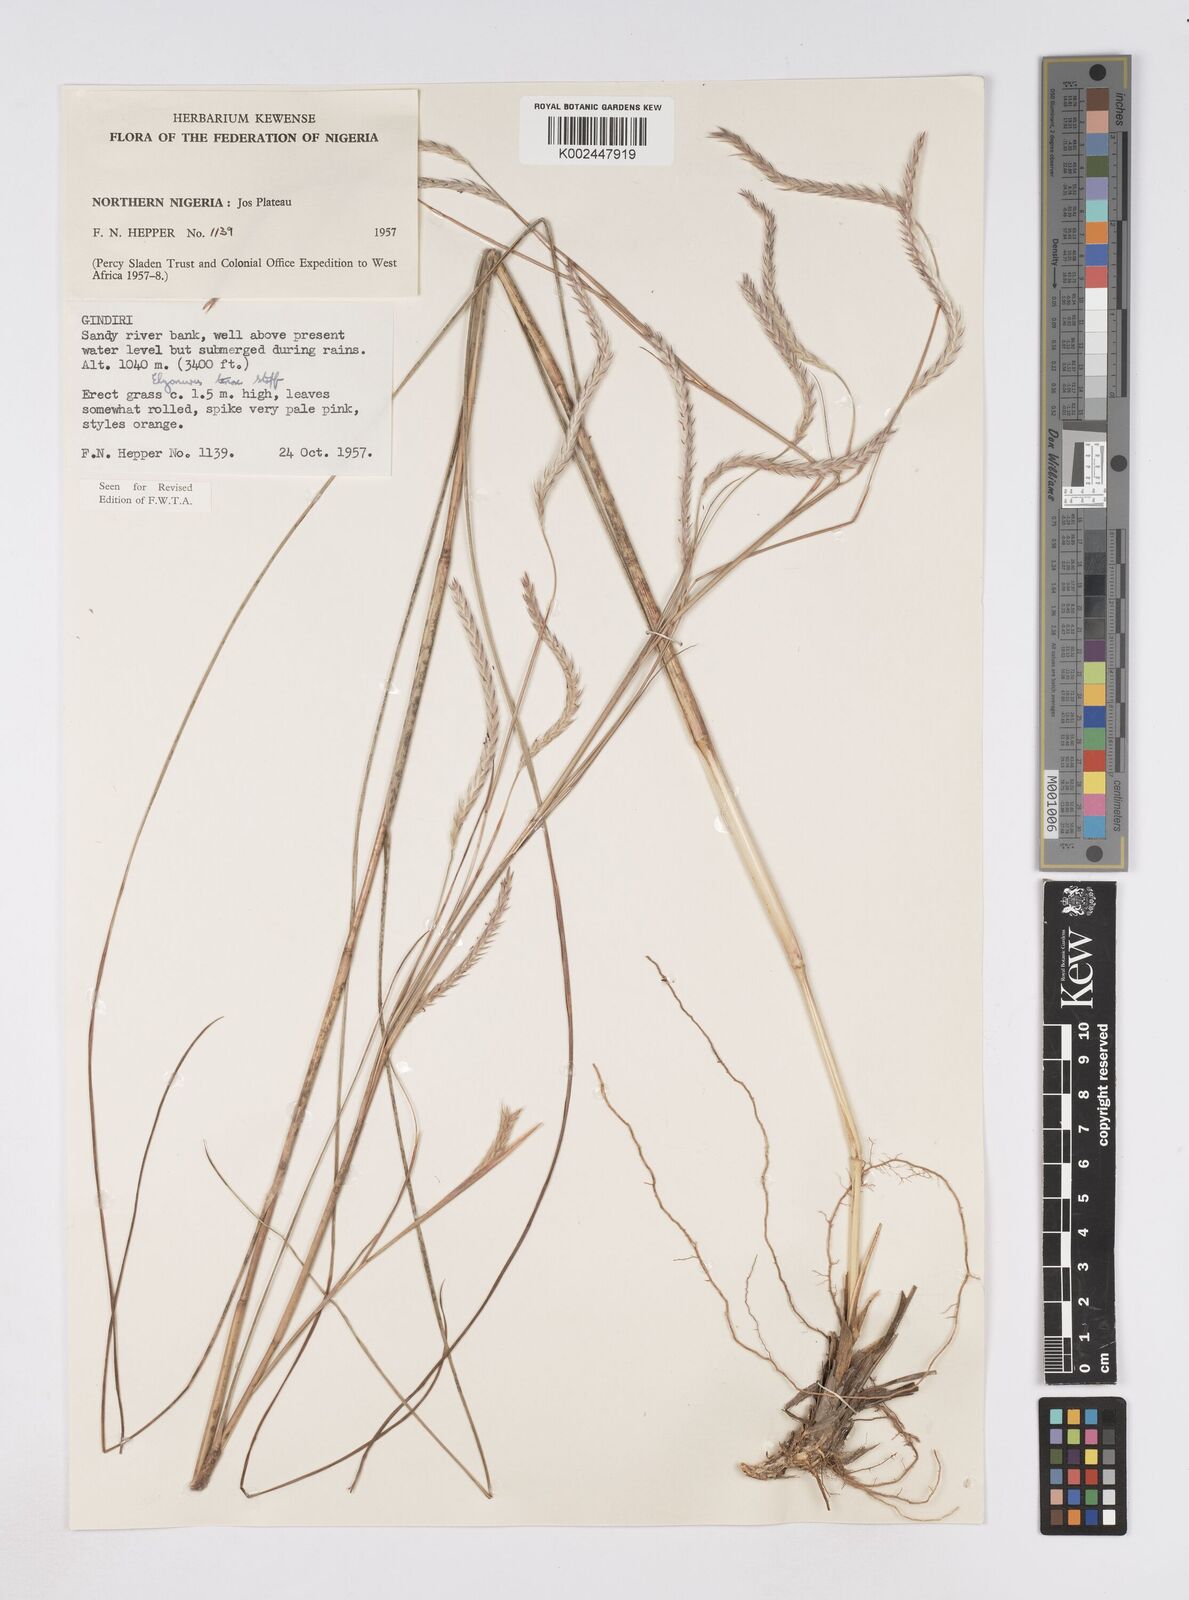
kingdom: Plantae
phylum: Tracheophyta
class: Liliopsida
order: Poales
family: Poaceae
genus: Elionurus
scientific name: Elionurus
